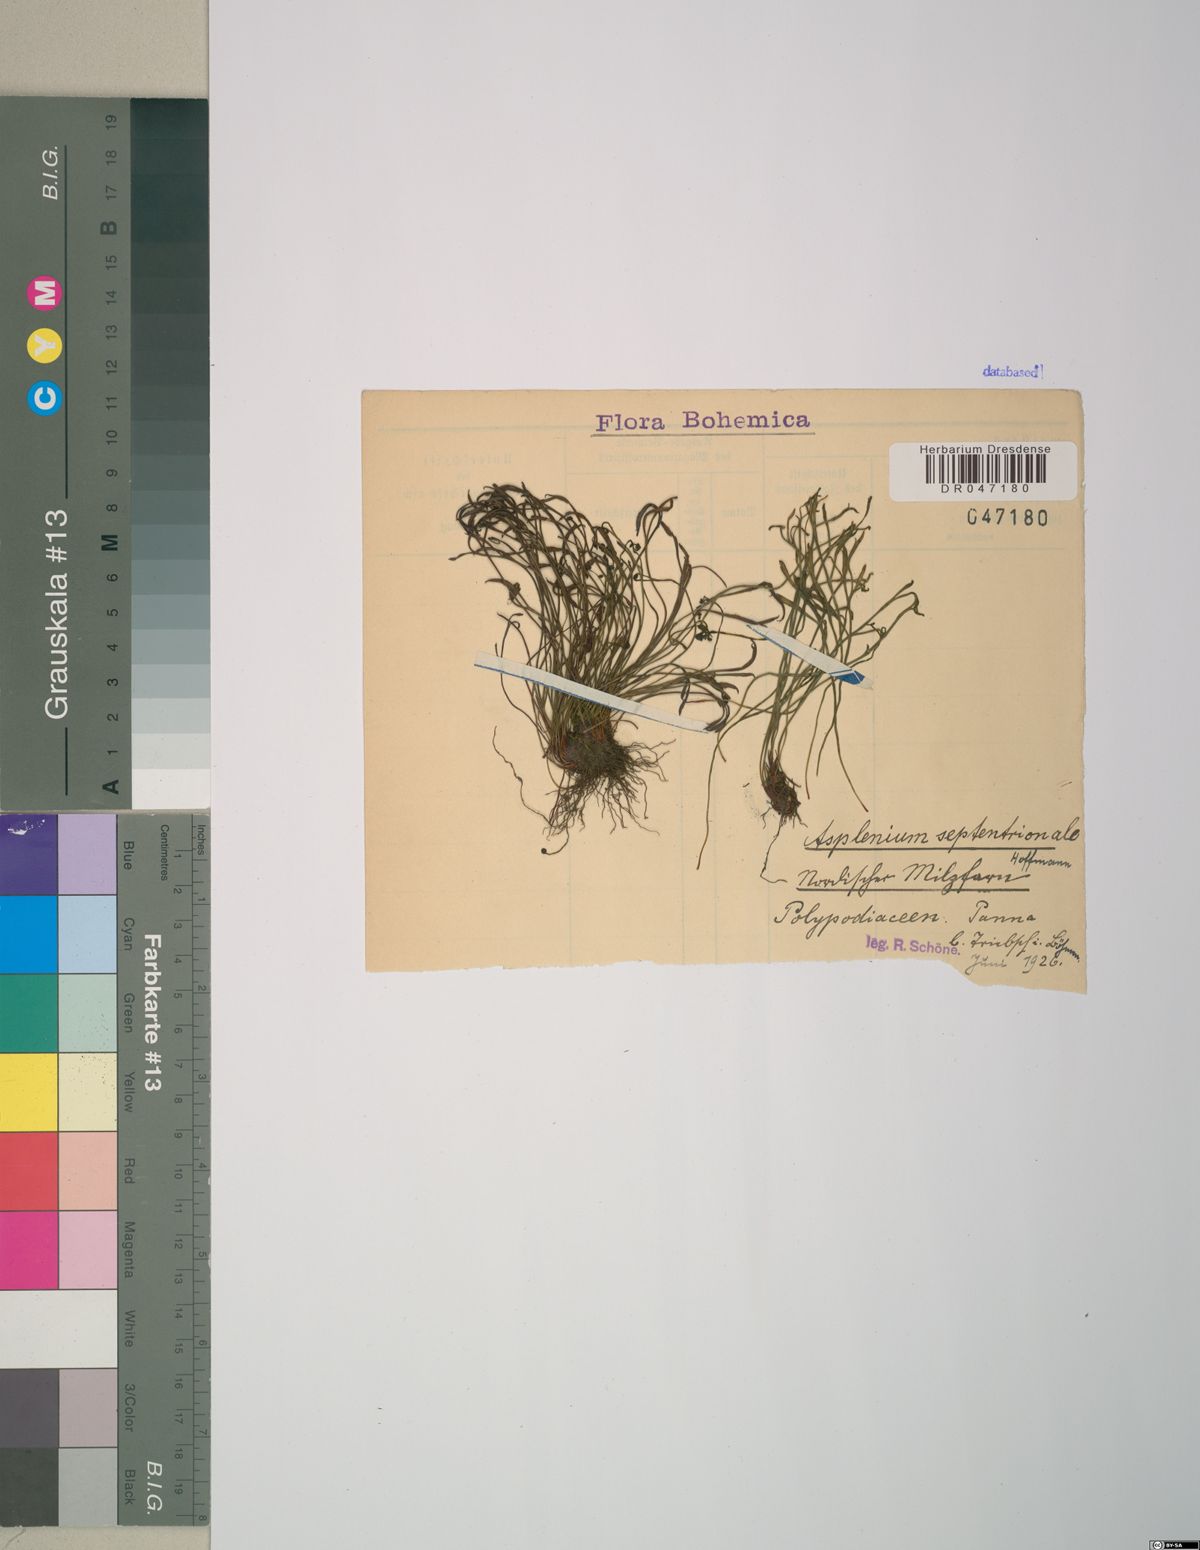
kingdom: Plantae
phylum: Tracheophyta
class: Polypodiopsida
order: Polypodiales
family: Aspleniaceae
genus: Asplenium
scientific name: Asplenium septentrionale
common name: Forked spleenwort
